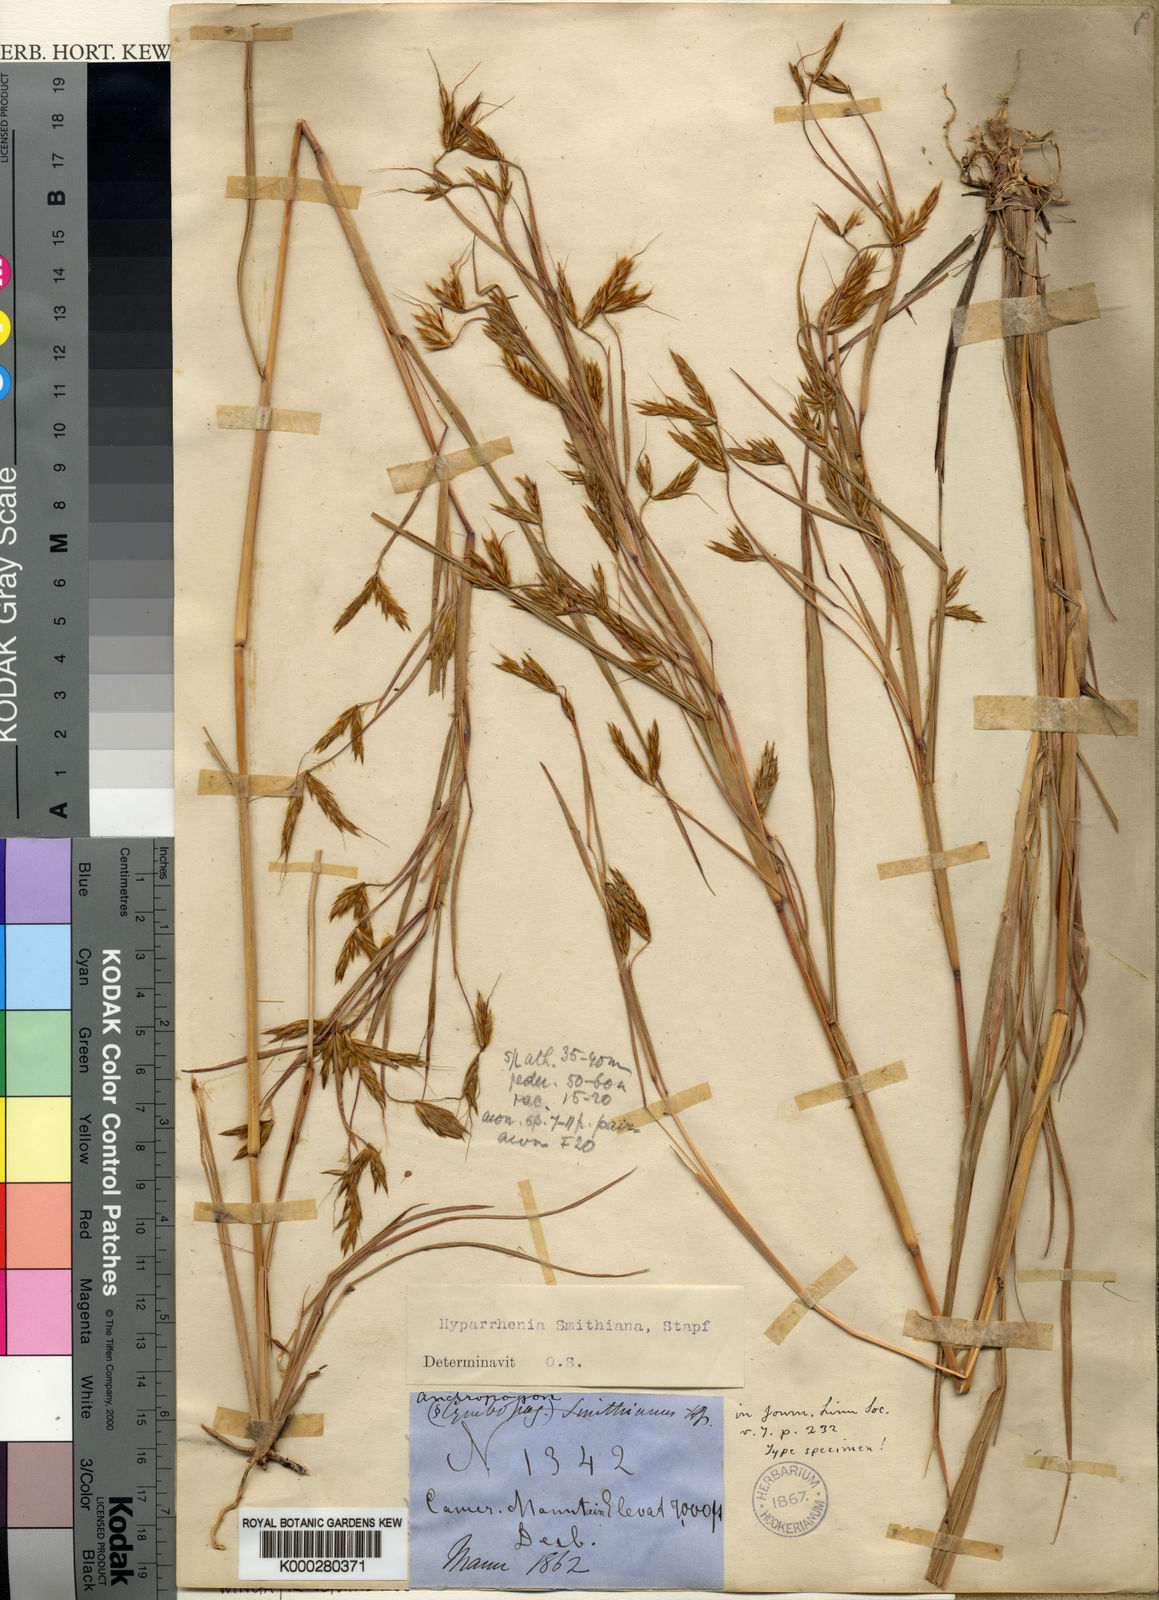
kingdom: Plantae
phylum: Tracheophyta
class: Liliopsida
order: Poales
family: Poaceae
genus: Hyparrhenia
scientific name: Hyparrhenia smithiana
